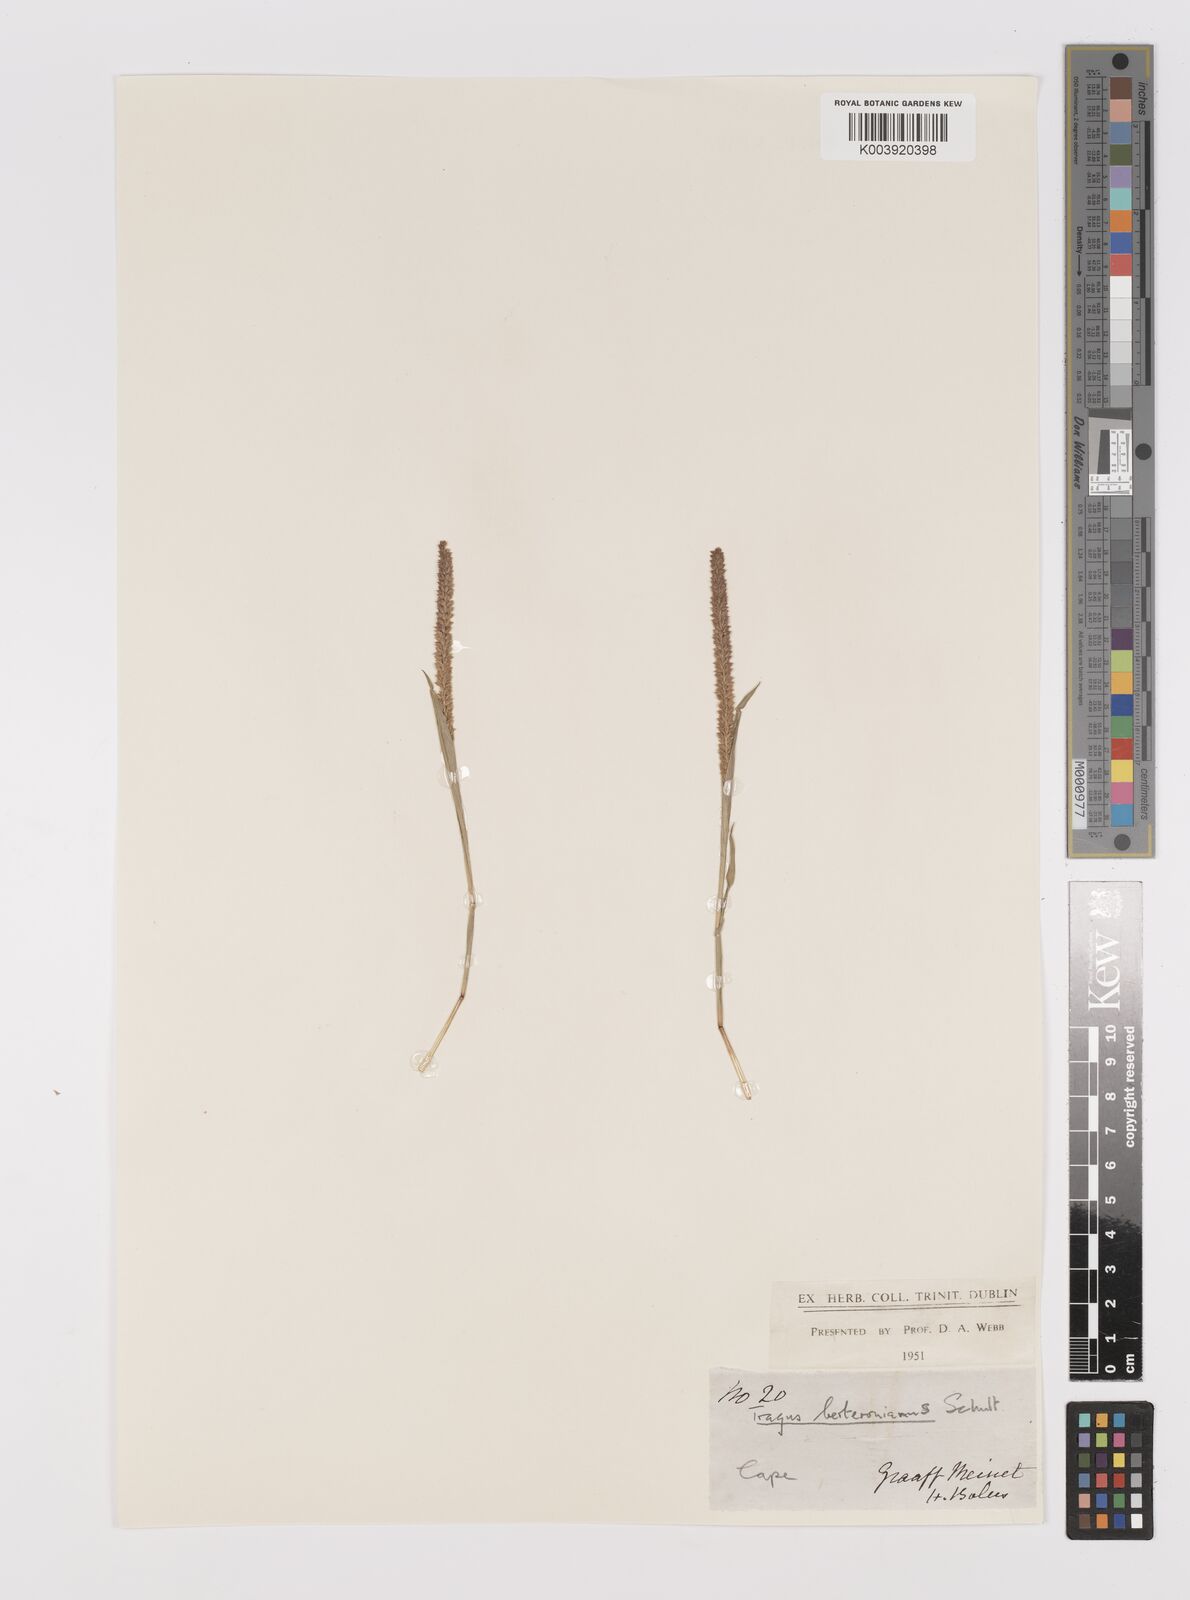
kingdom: Plantae
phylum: Tracheophyta
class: Liliopsida
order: Poales
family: Poaceae
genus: Tragus
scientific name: Tragus berteronianus
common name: African bur-grass
